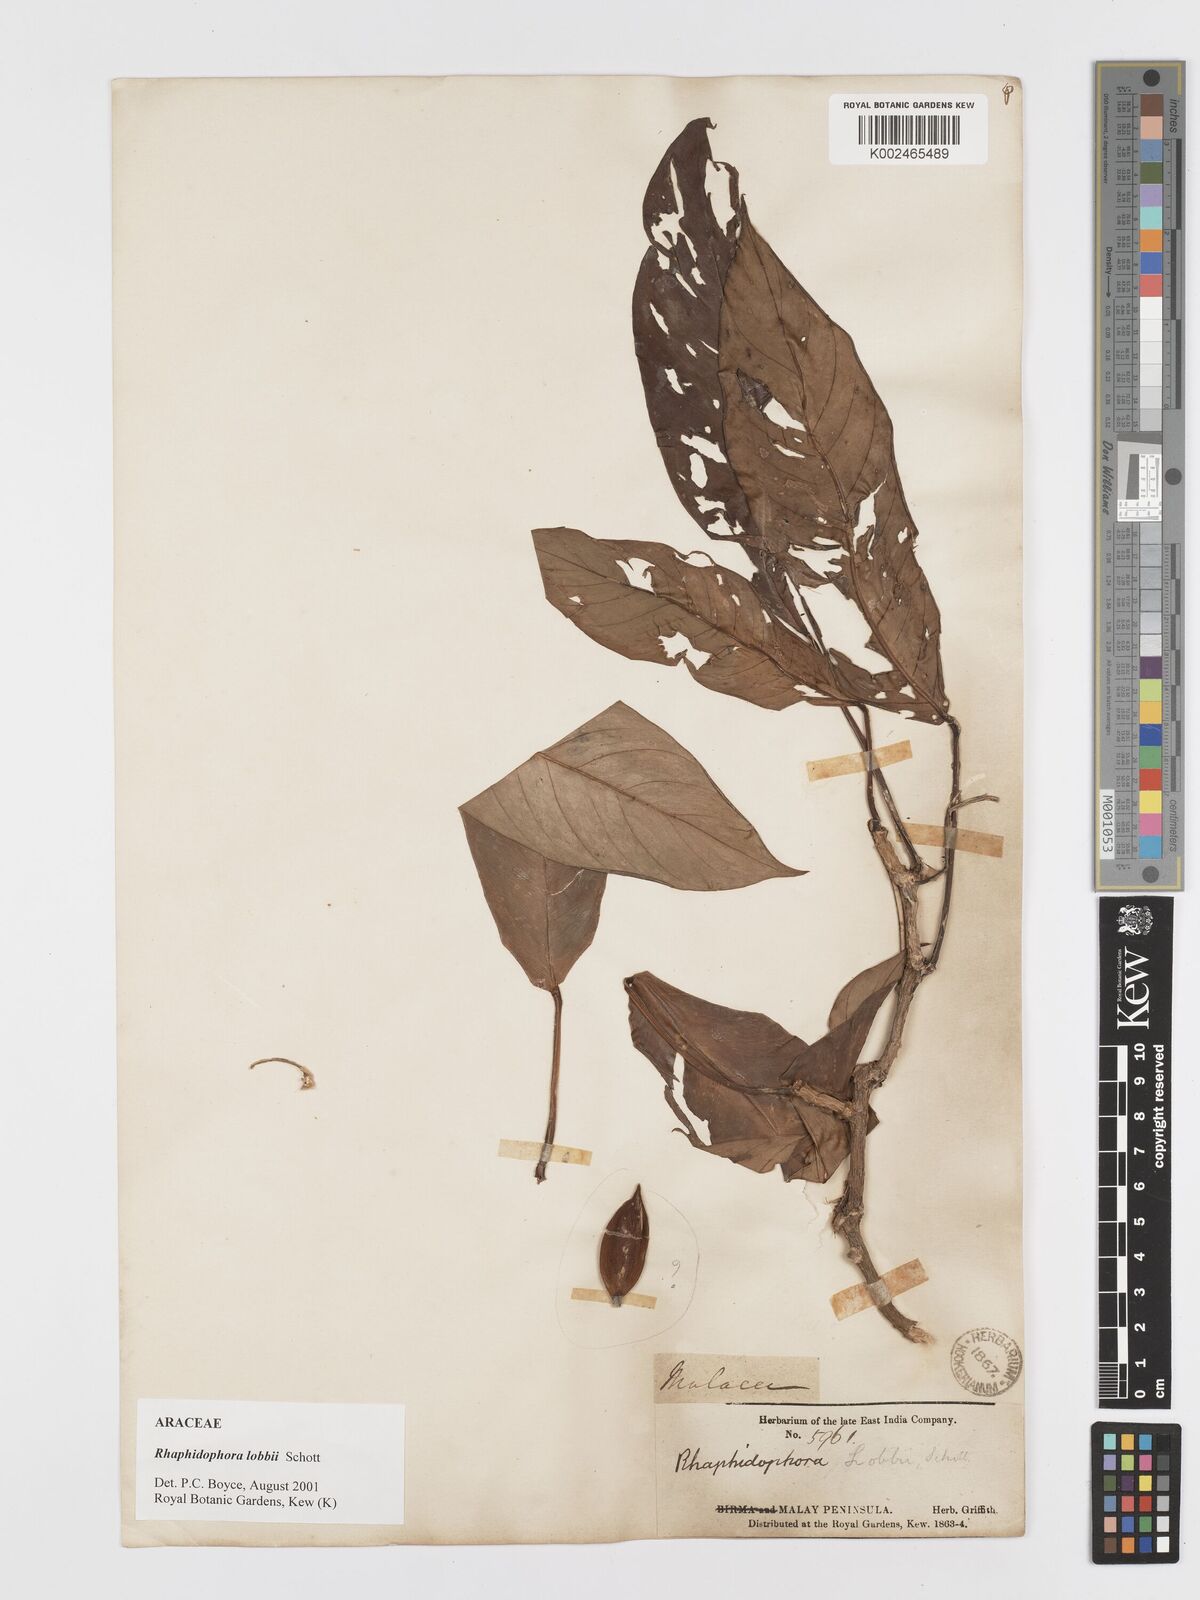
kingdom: Plantae
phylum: Tracheophyta
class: Liliopsida
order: Alismatales
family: Araceae
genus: Rhaphidophora
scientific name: Rhaphidophora lobbii
